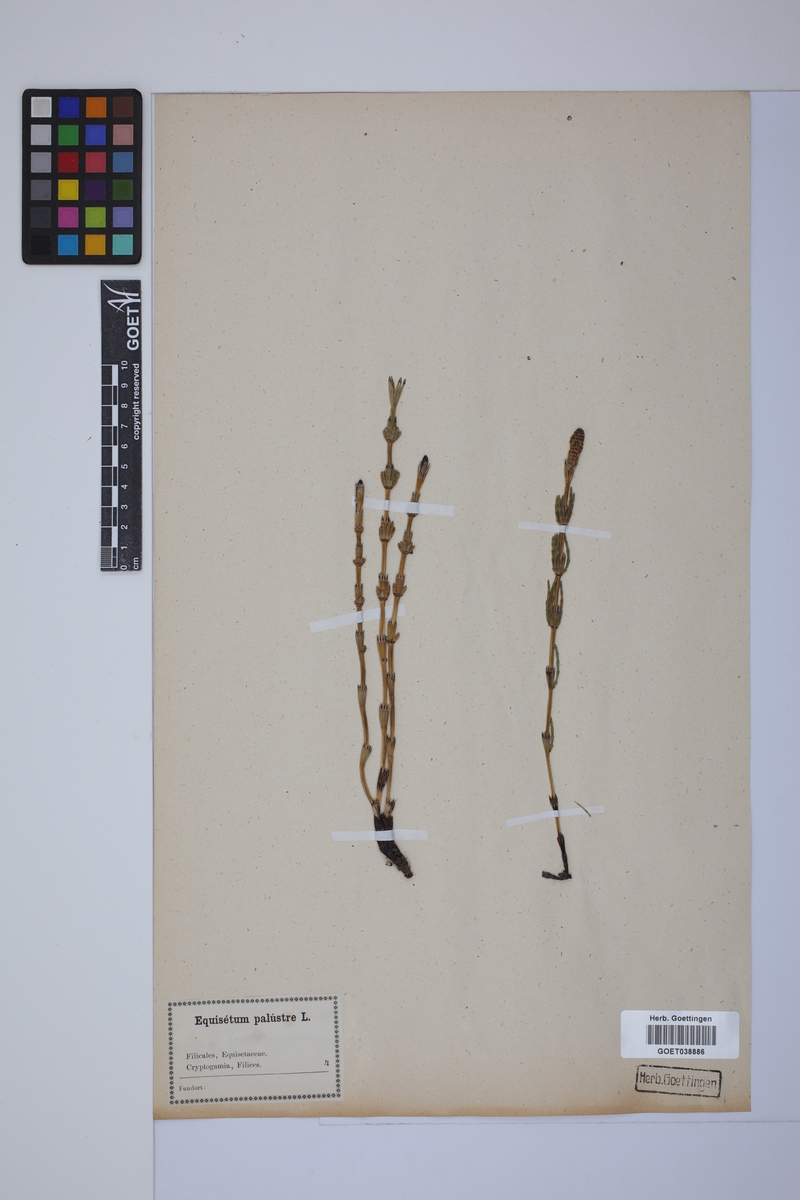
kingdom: Plantae
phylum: Tracheophyta
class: Polypodiopsida
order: Equisetales
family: Equisetaceae
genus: Equisetum
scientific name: Equisetum palustre
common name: Marsh horsetail
